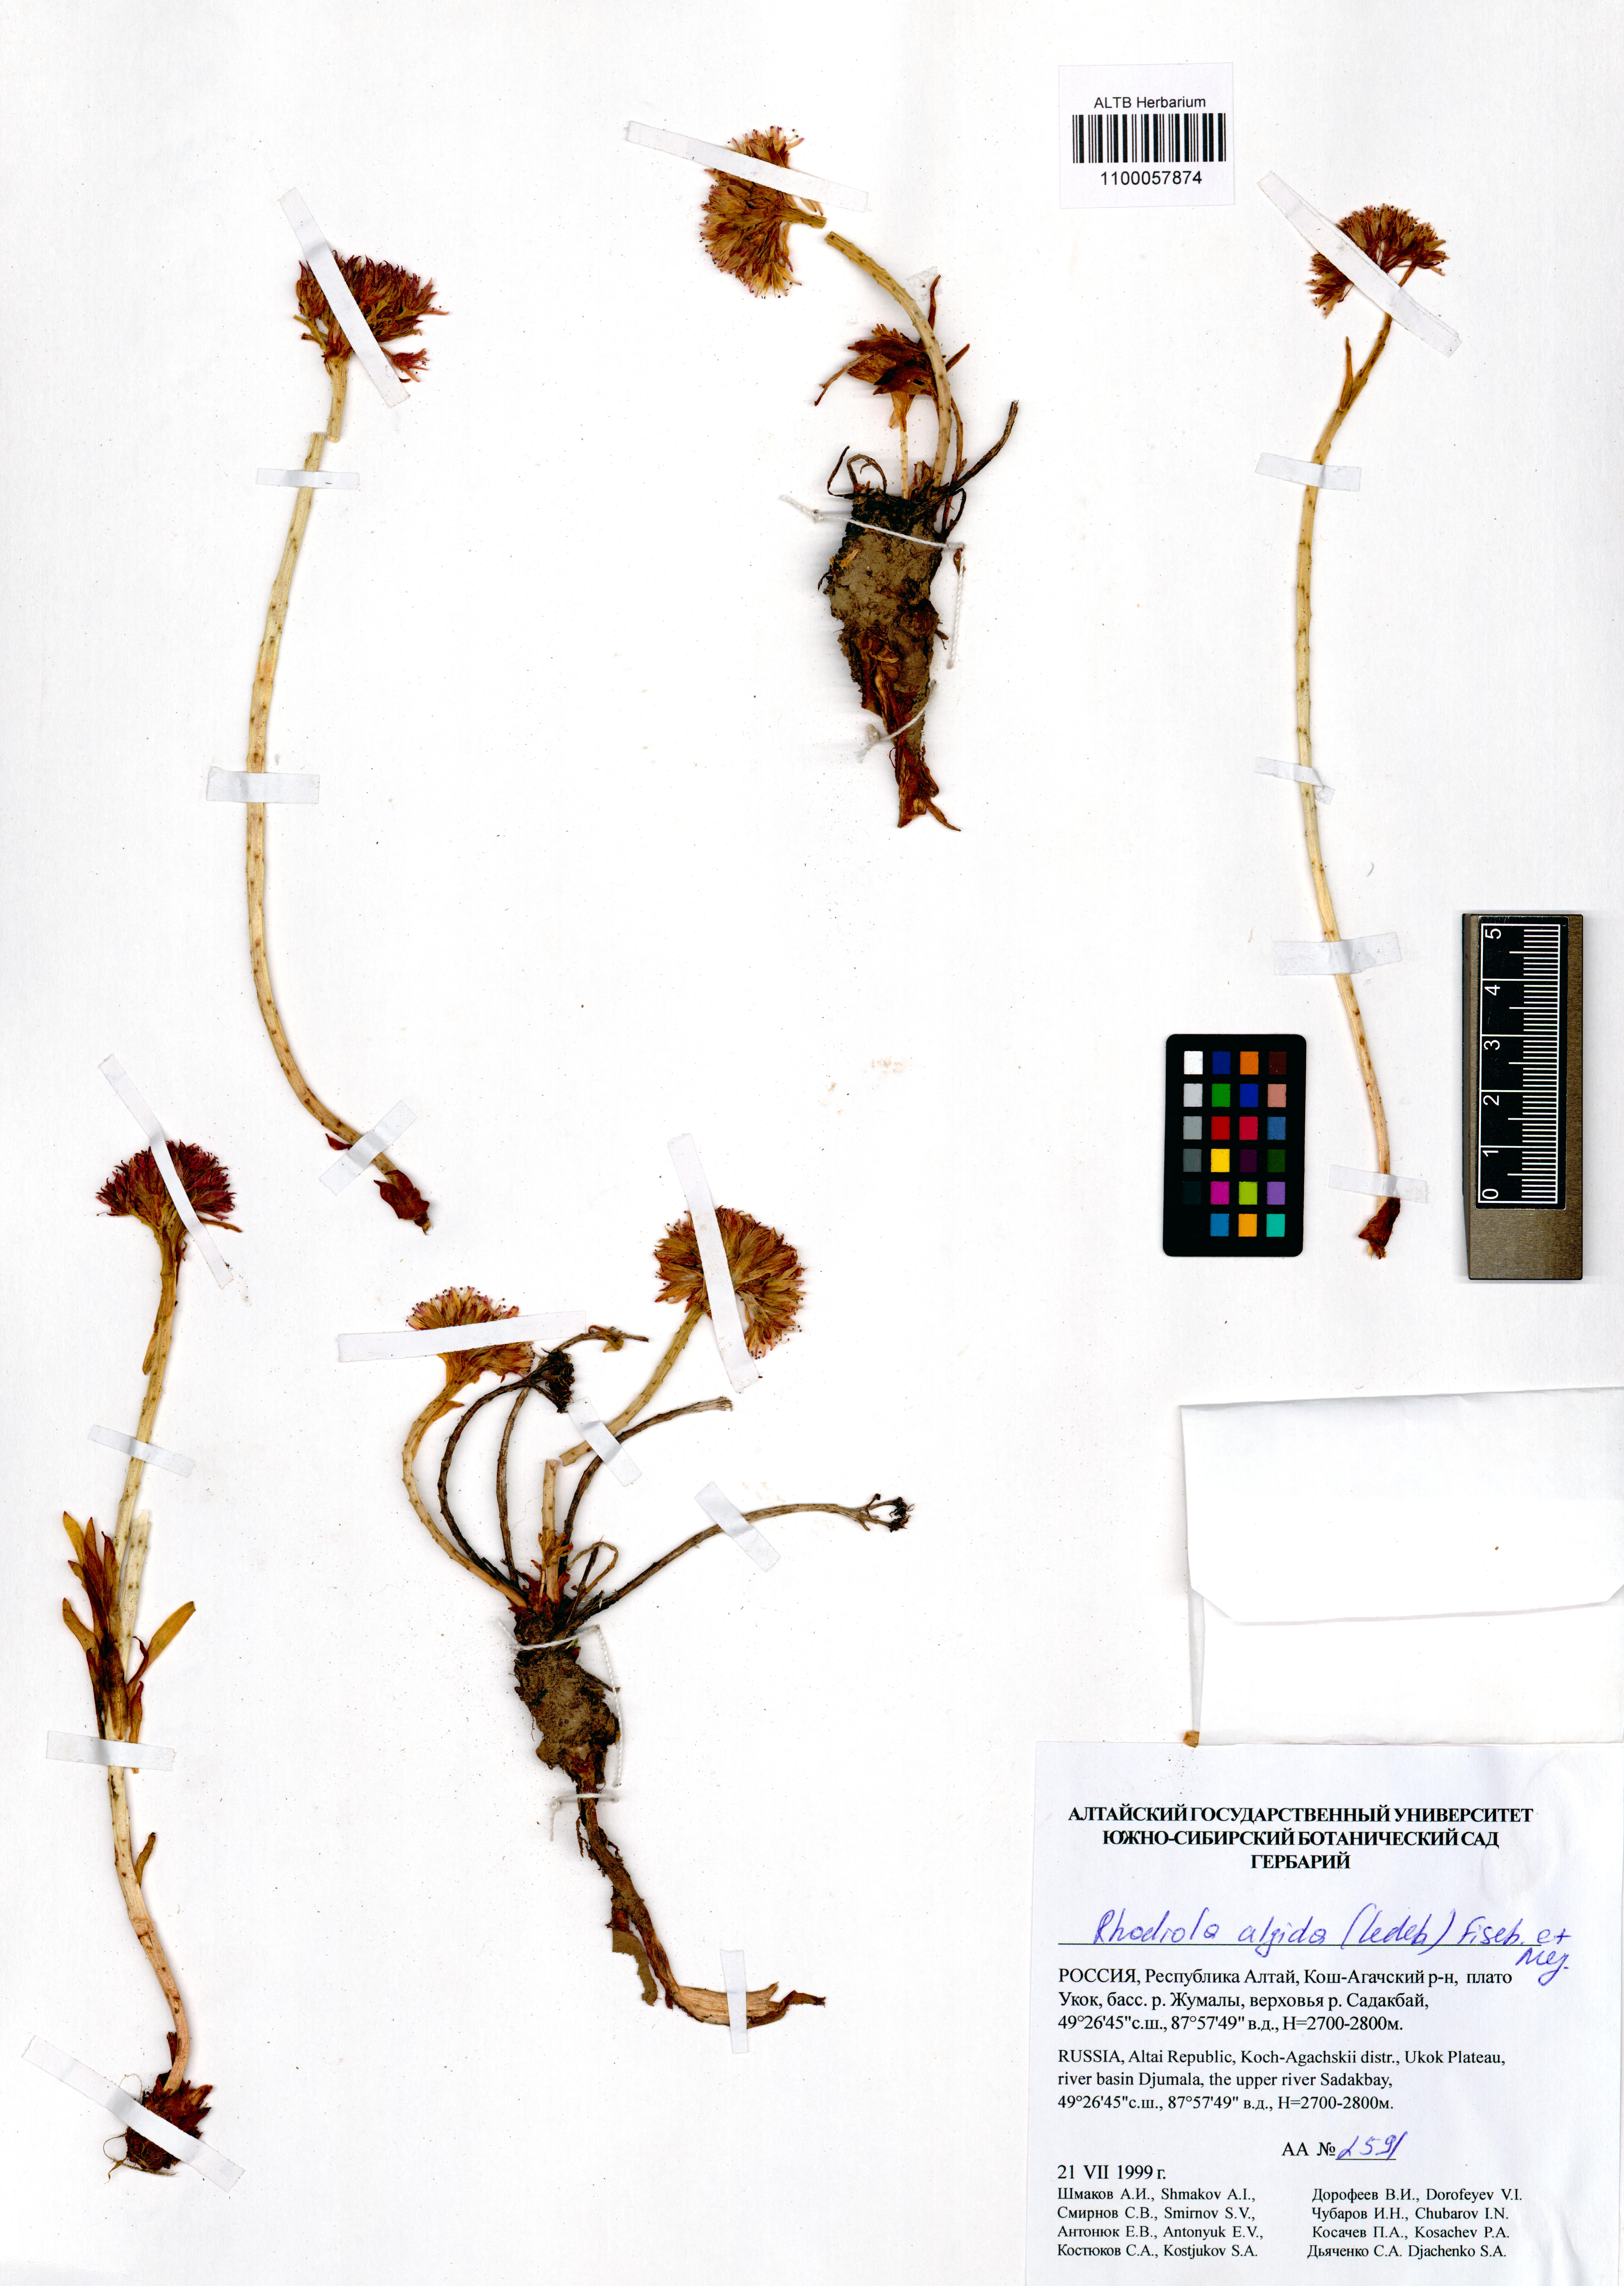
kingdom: Plantae
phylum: Tracheophyta
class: Magnoliopsida
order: Saxifragales
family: Crassulaceae
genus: Rhodiola
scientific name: Rhodiola algida
